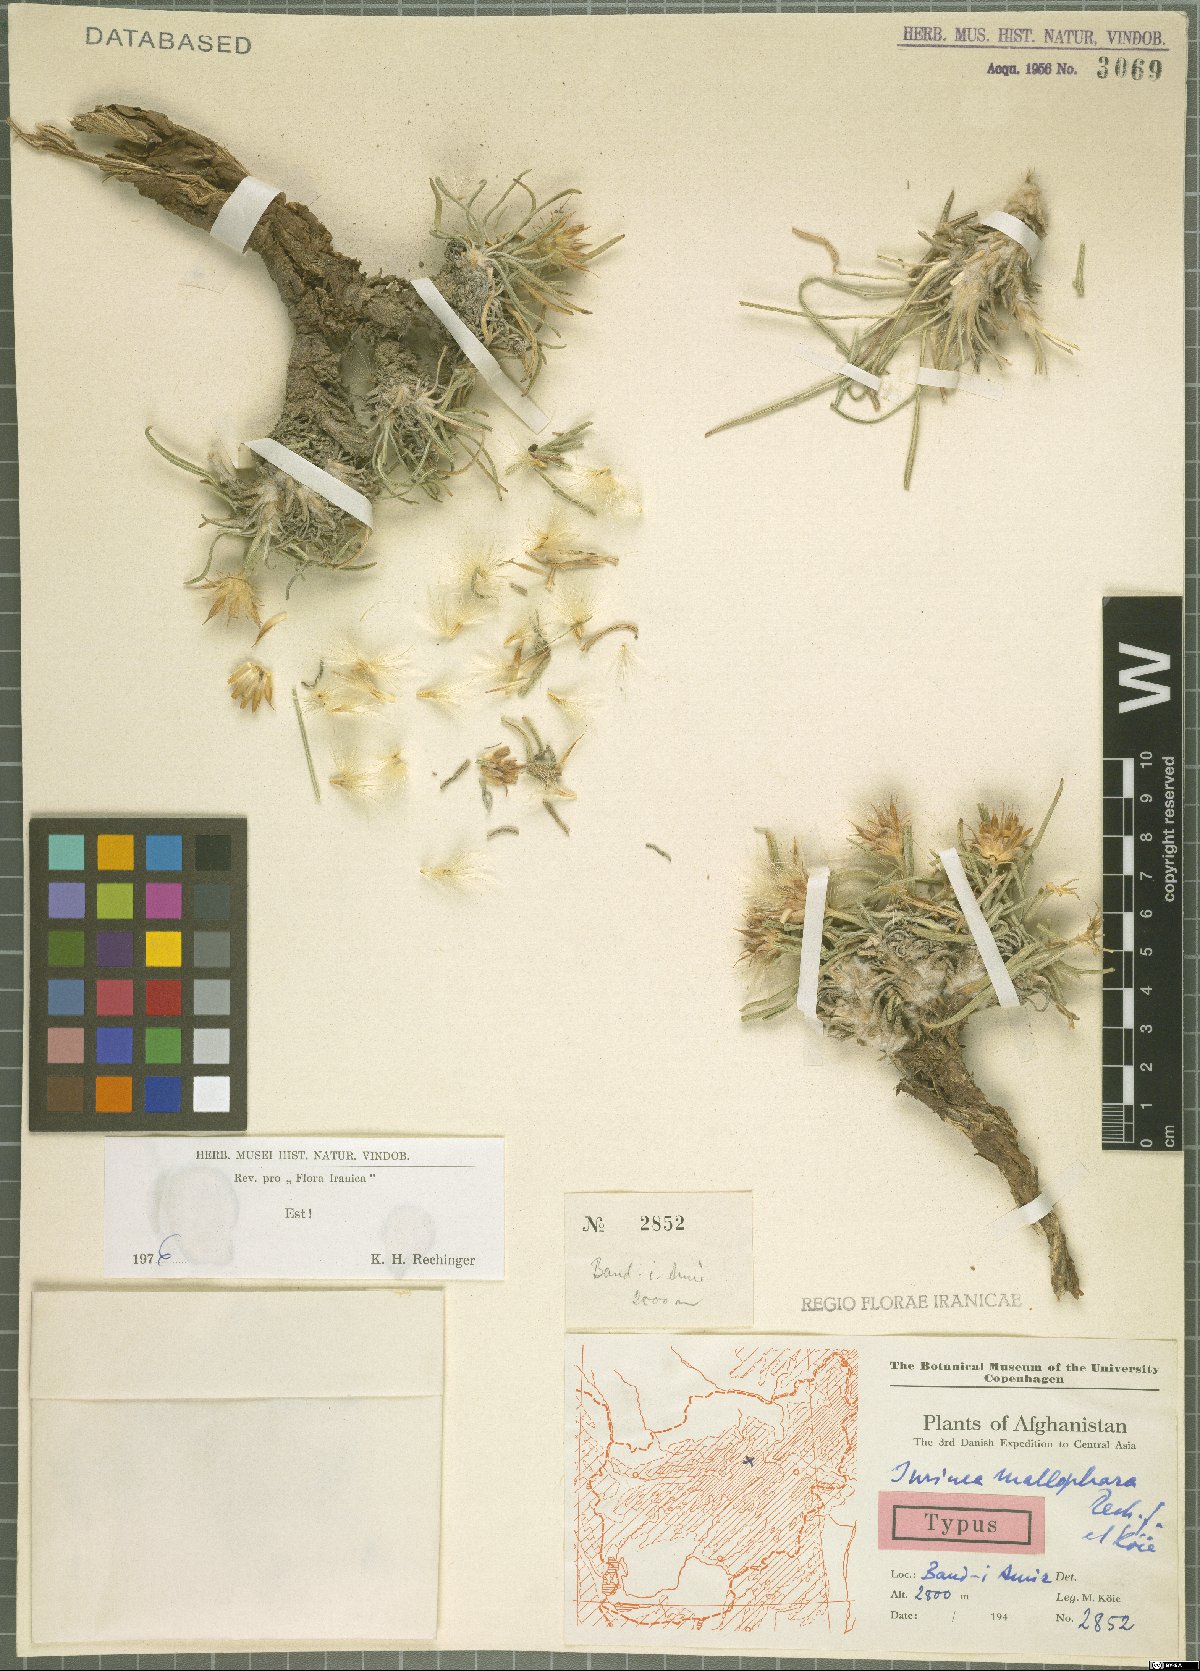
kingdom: Plantae
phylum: Tracheophyta
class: Magnoliopsida
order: Asterales
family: Asteraceae
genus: Jurinea
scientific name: Jurinea mallophora
